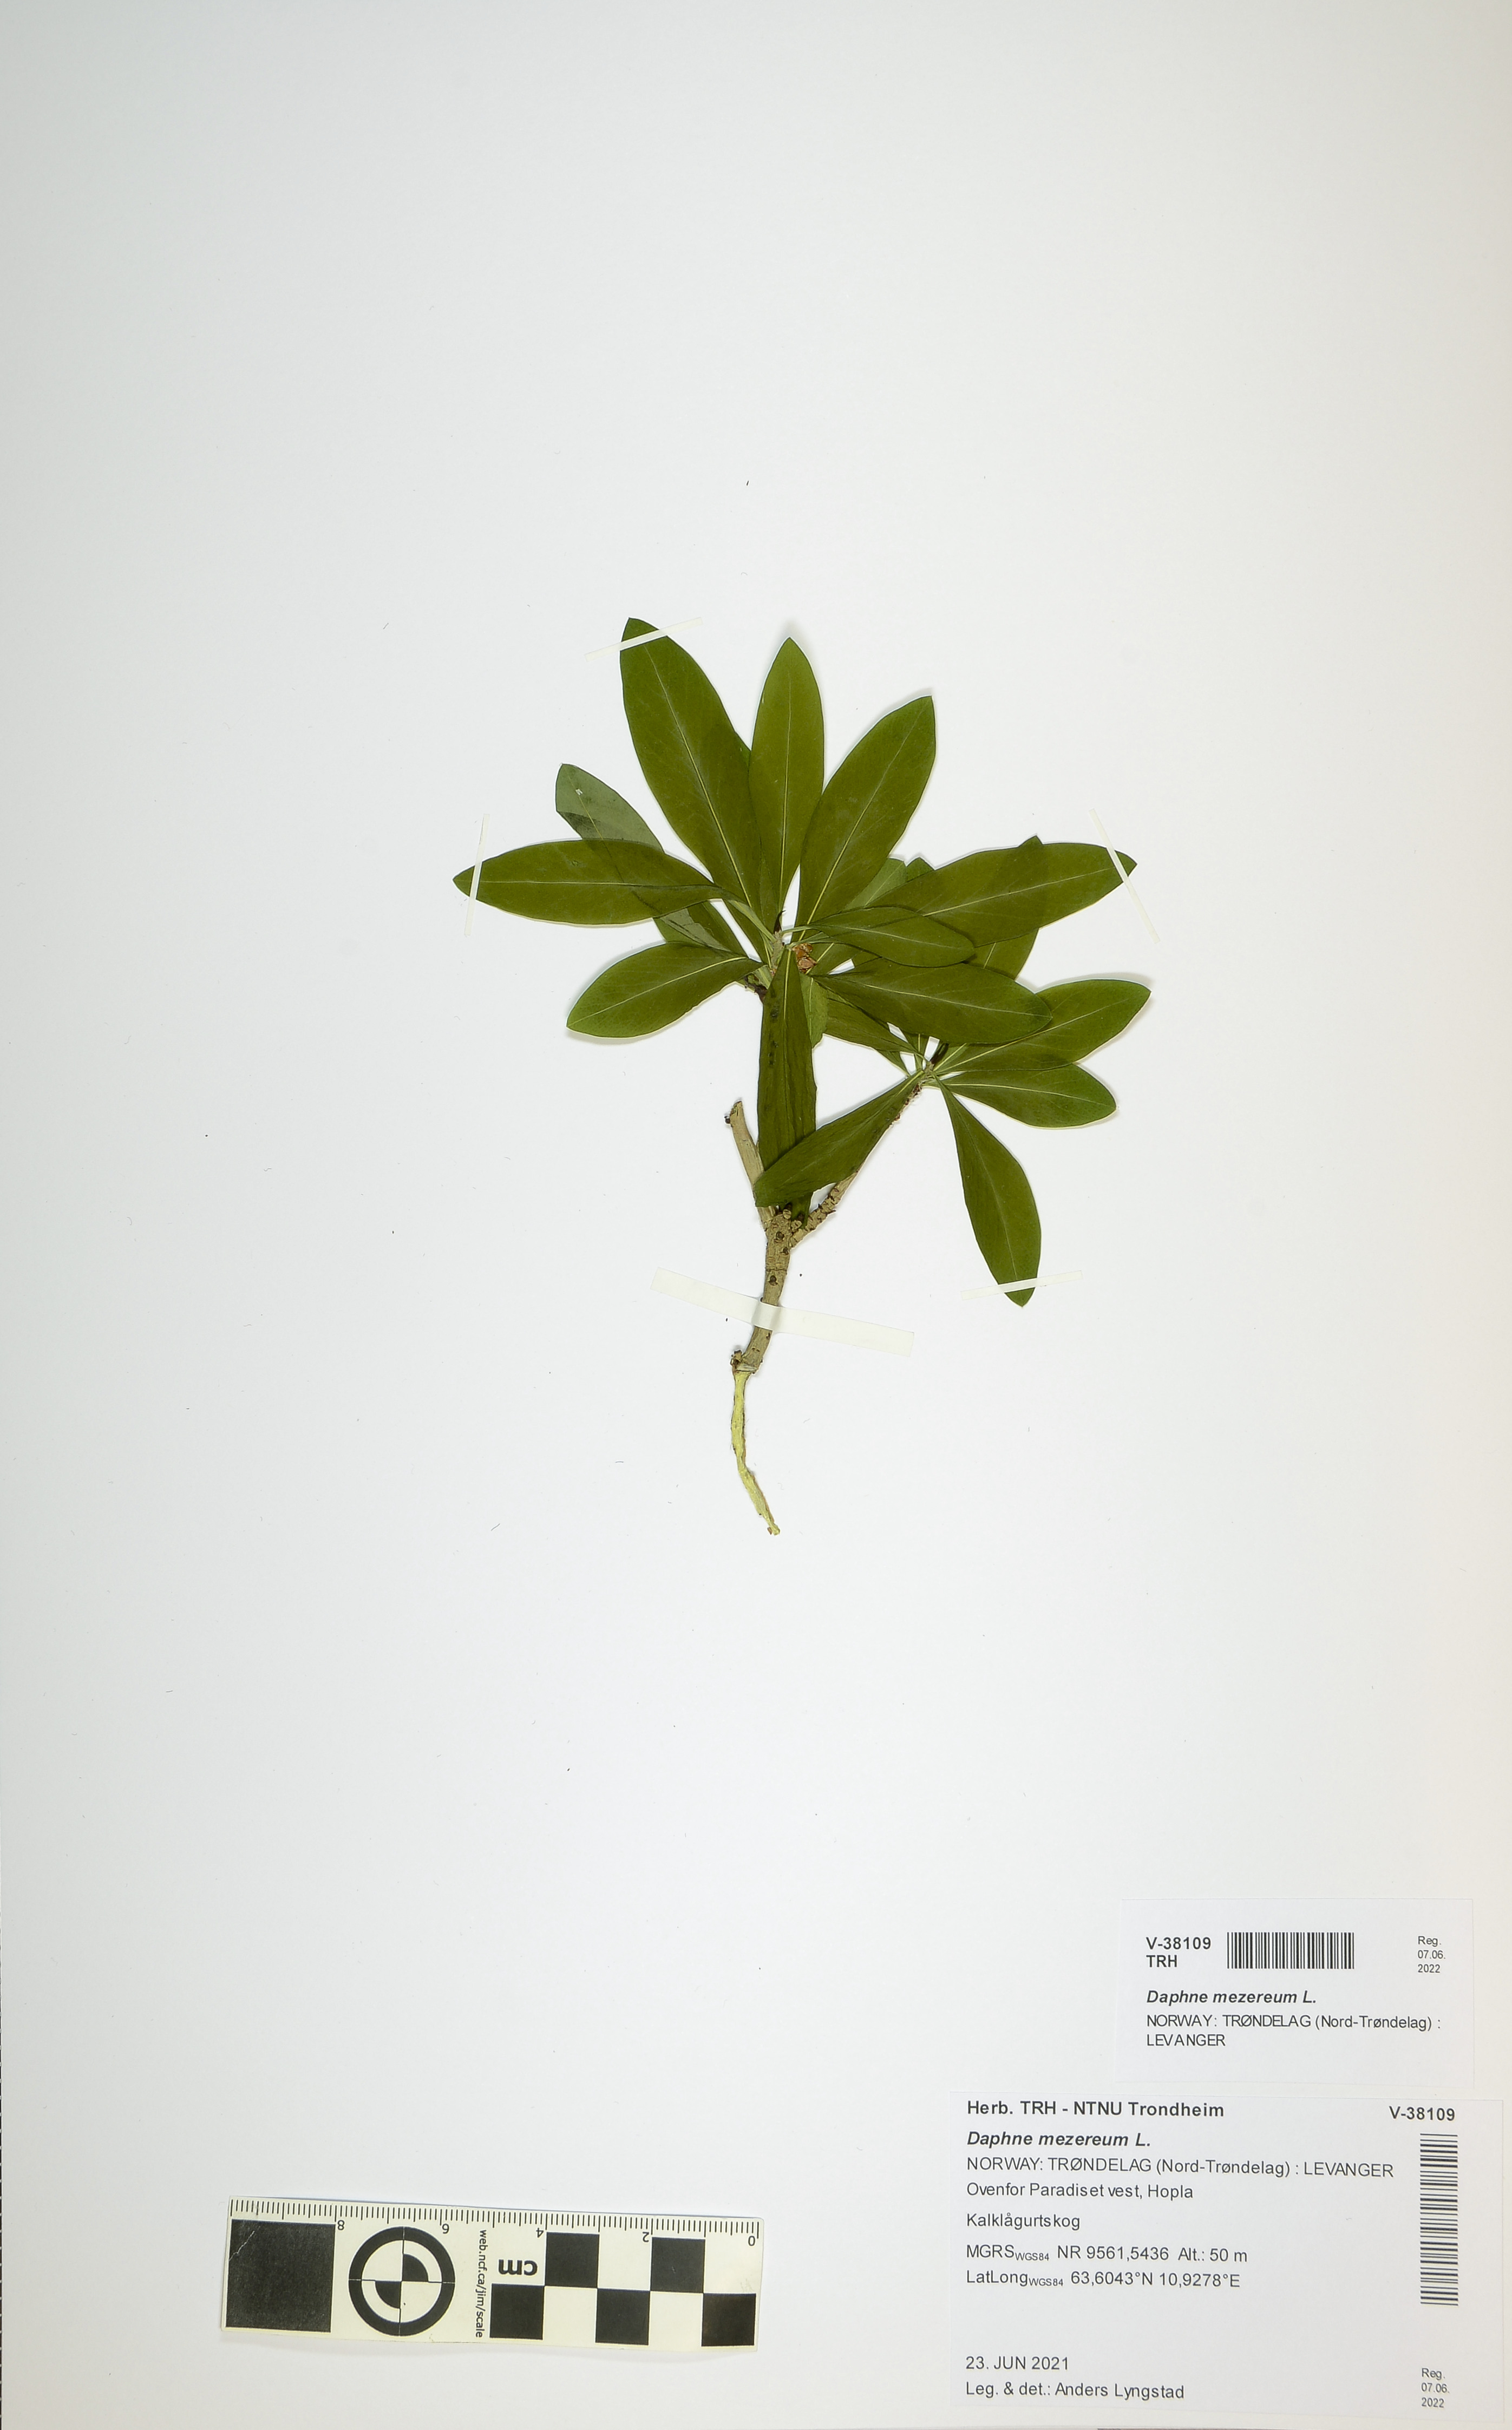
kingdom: Plantae
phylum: Tracheophyta
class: Magnoliopsida
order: Malvales
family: Thymelaeaceae
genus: Daphne
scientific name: Daphne mezereum
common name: Mezereon
